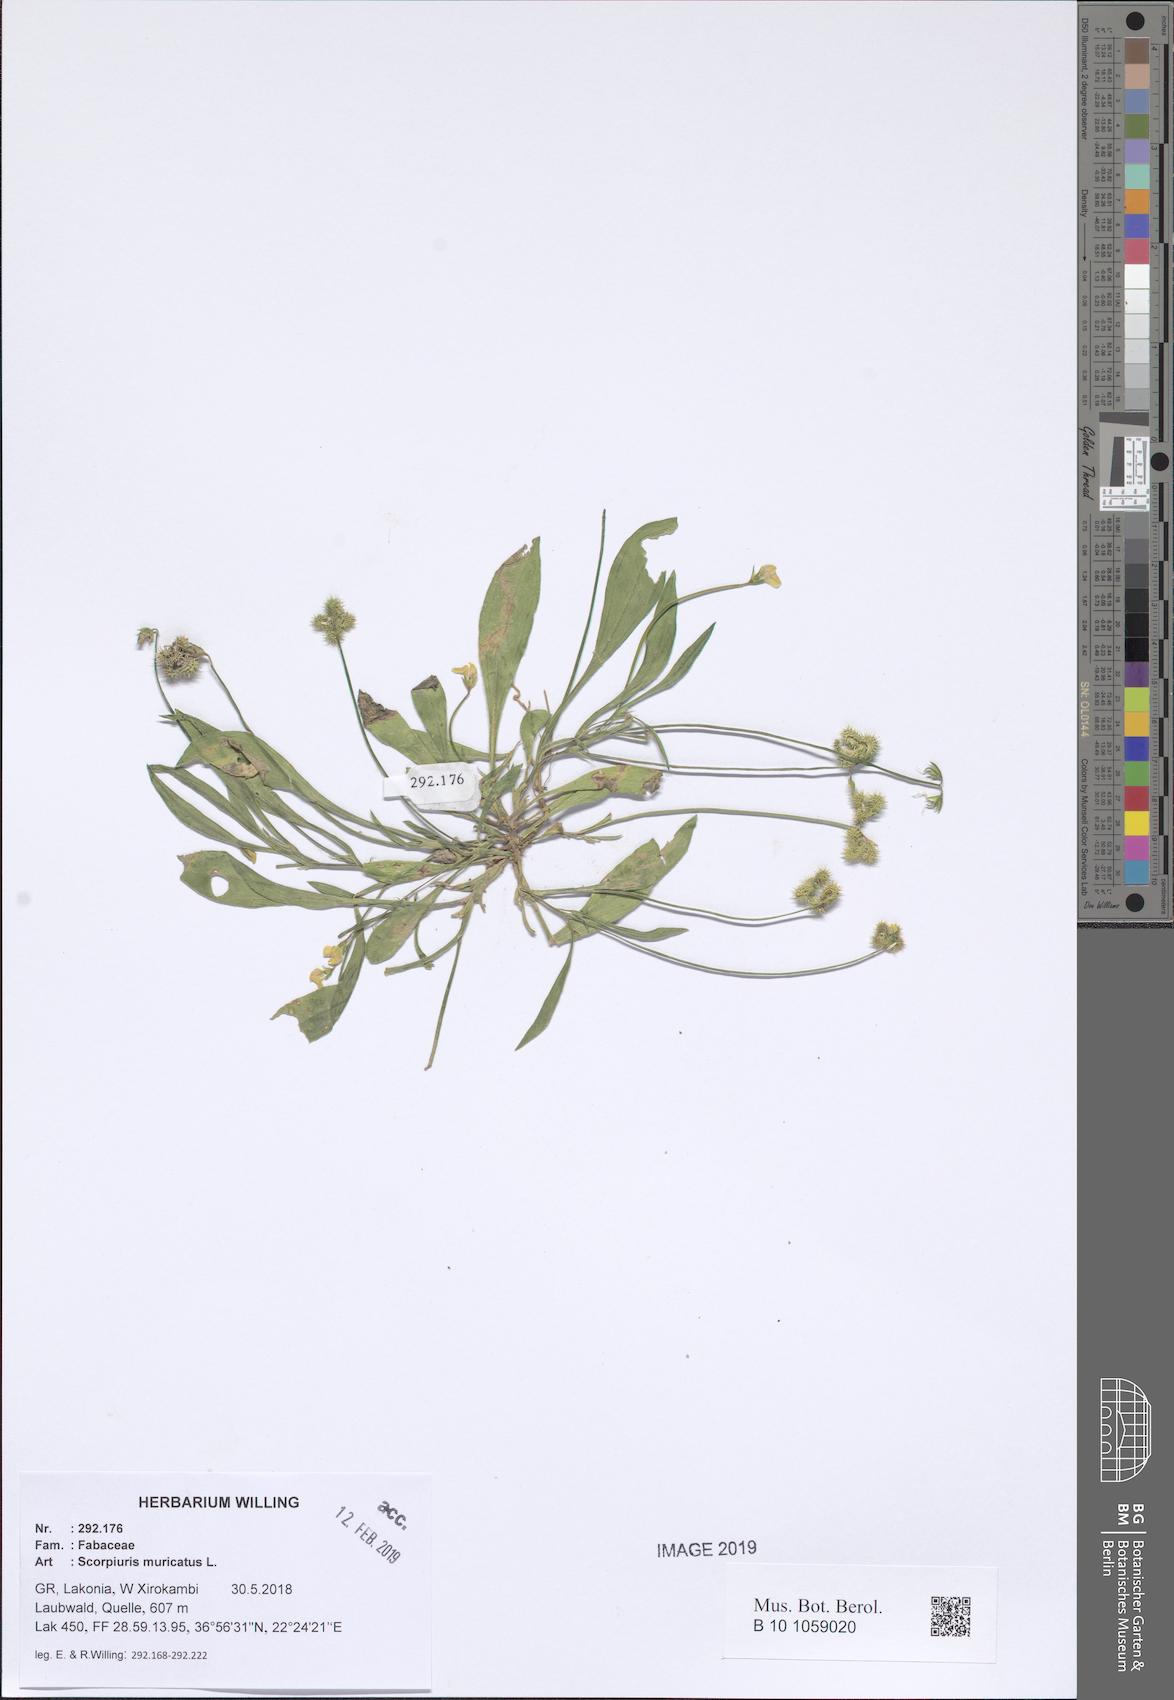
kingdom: Plantae
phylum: Tracheophyta
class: Magnoliopsida
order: Fabales
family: Fabaceae
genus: Scorpiurus
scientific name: Scorpiurus muricatus
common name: Caterpillar-plant
